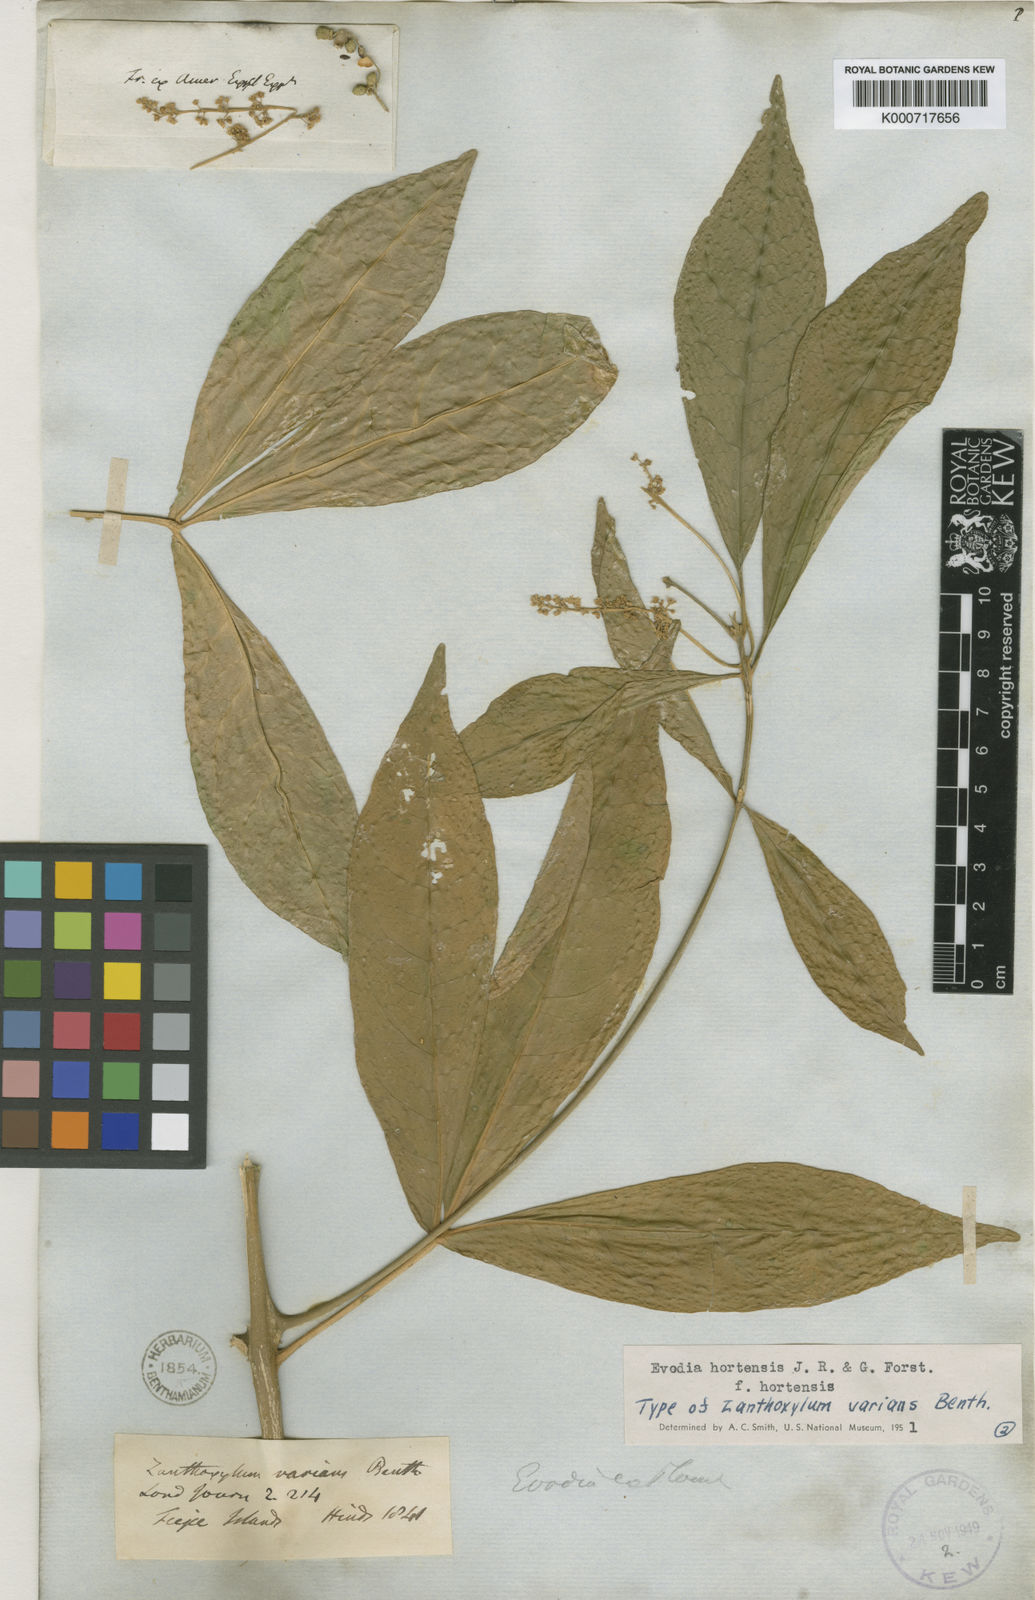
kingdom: Plantae
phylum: Tracheophyta
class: Magnoliopsida
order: Sapindales
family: Rutaceae
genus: Euodia
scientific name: Euodia hortensis
